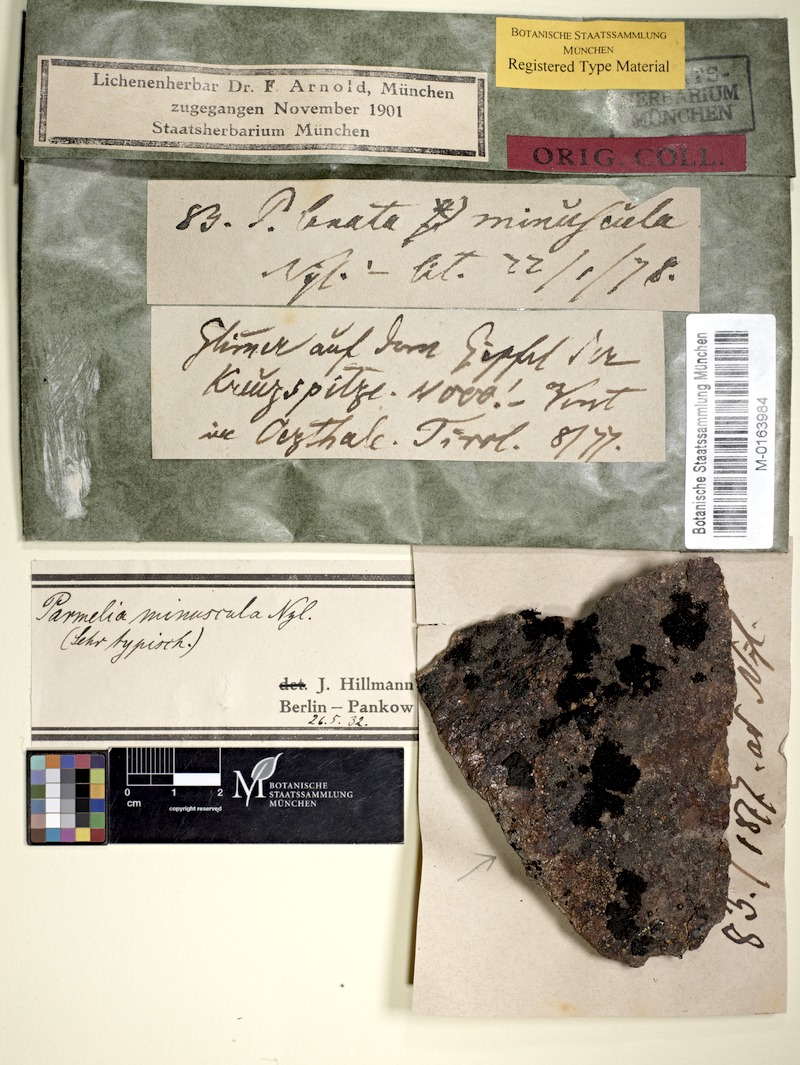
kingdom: Fungi
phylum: Ascomycota
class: Lecanoromycetes
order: Lecanorales
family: Parmeliaceae
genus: Pseudephebe
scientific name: Pseudephebe minuscula
